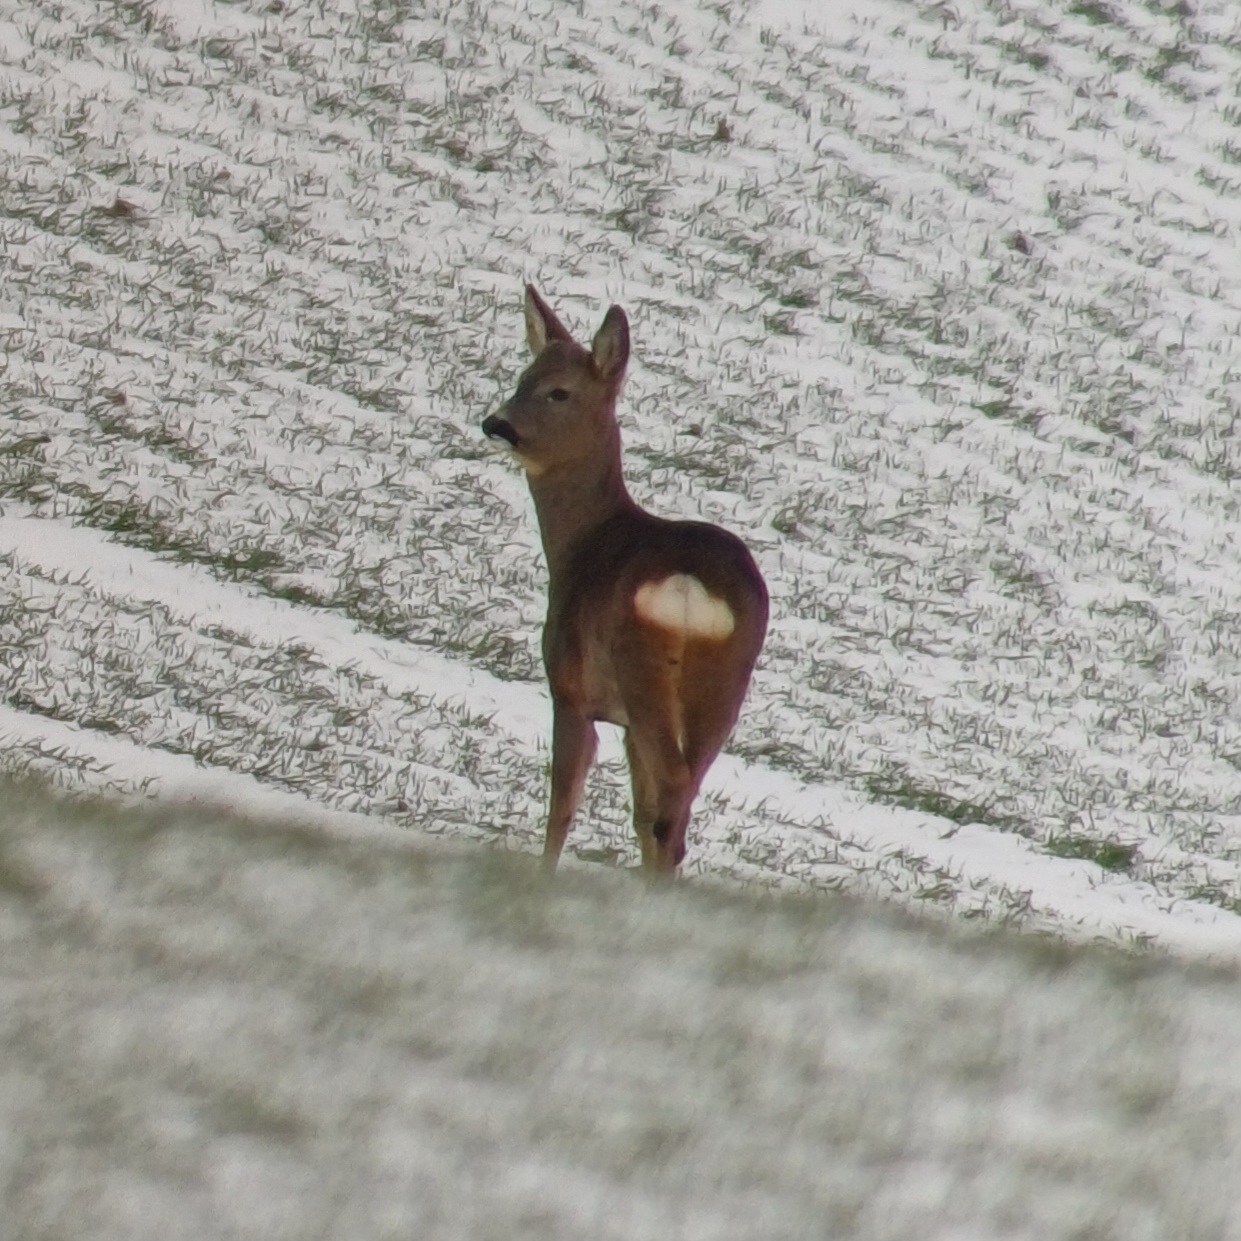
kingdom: Animalia
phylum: Chordata
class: Mammalia
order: Artiodactyla
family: Cervidae
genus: Capreolus
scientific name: Capreolus capreolus
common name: Rådyr
